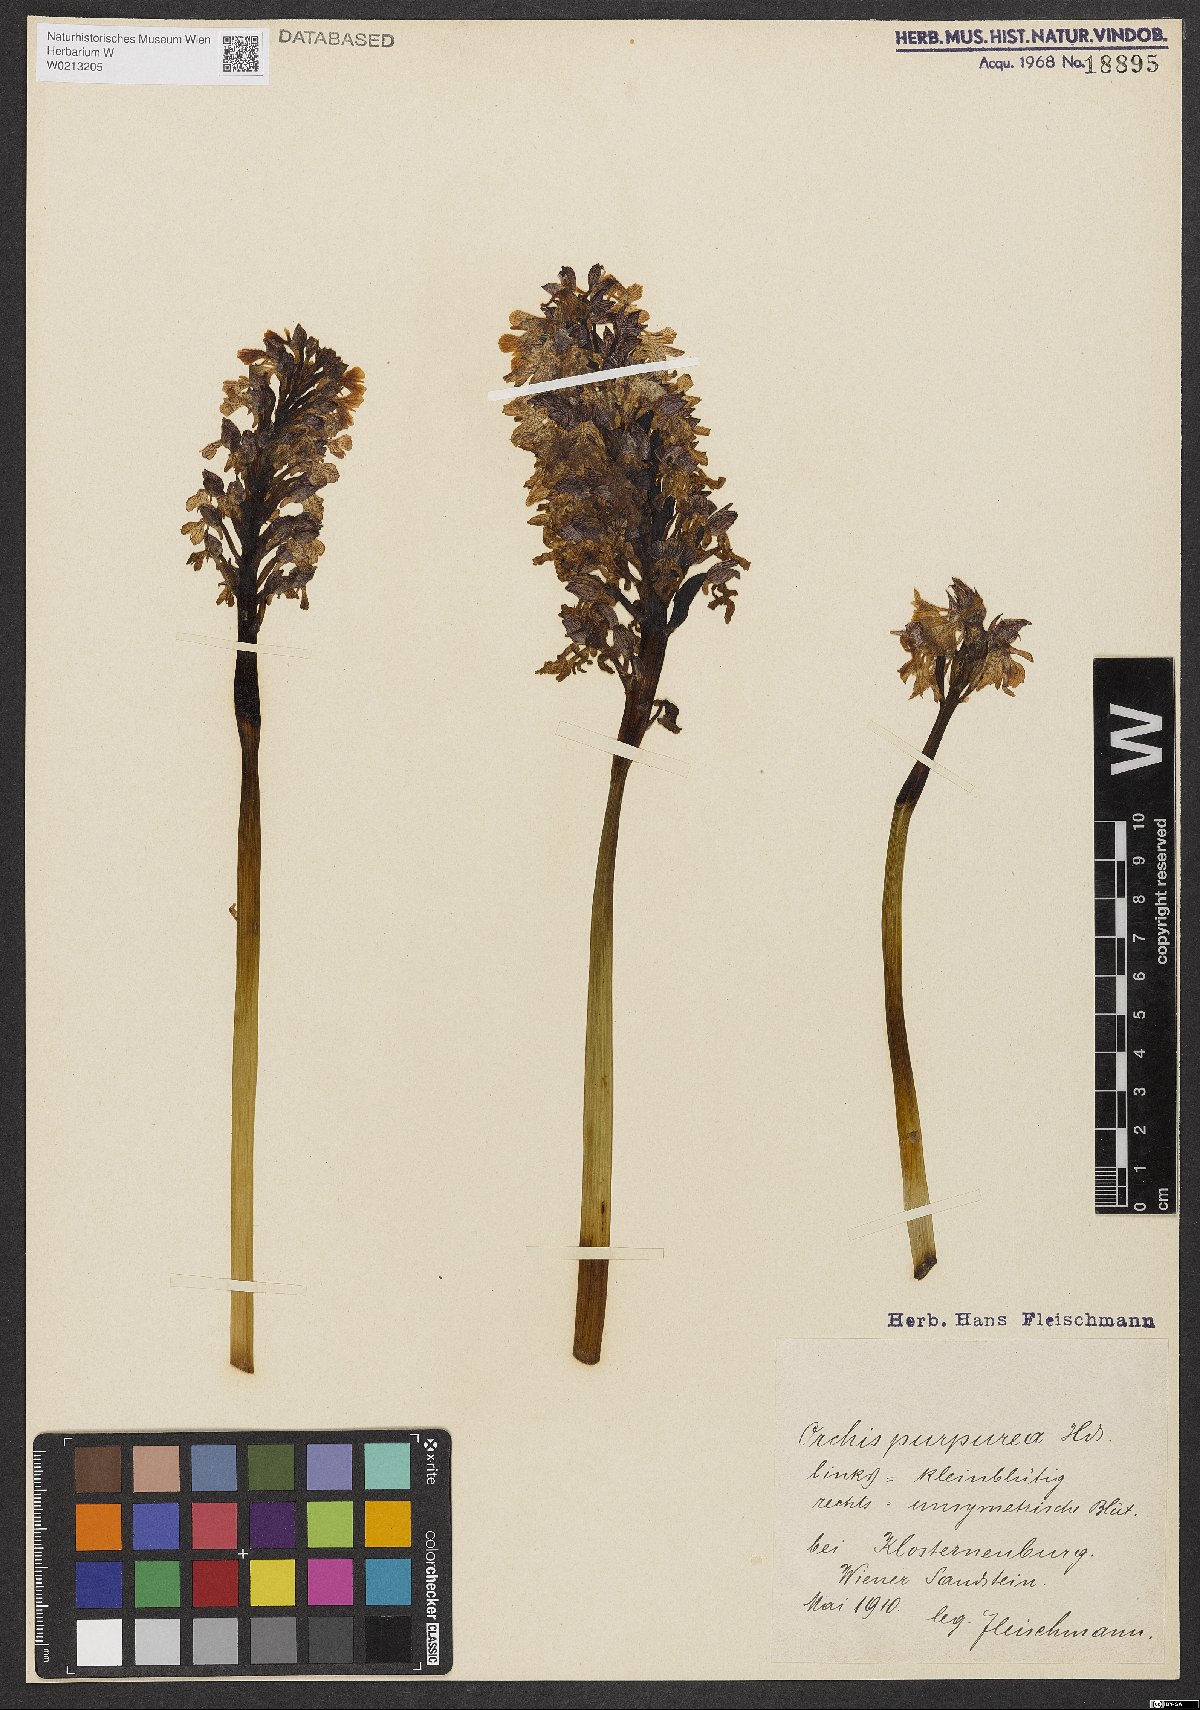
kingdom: Plantae
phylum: Tracheophyta
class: Liliopsida
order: Asparagales
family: Orchidaceae
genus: Orchis
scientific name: Orchis purpurea
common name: Lady orchid
